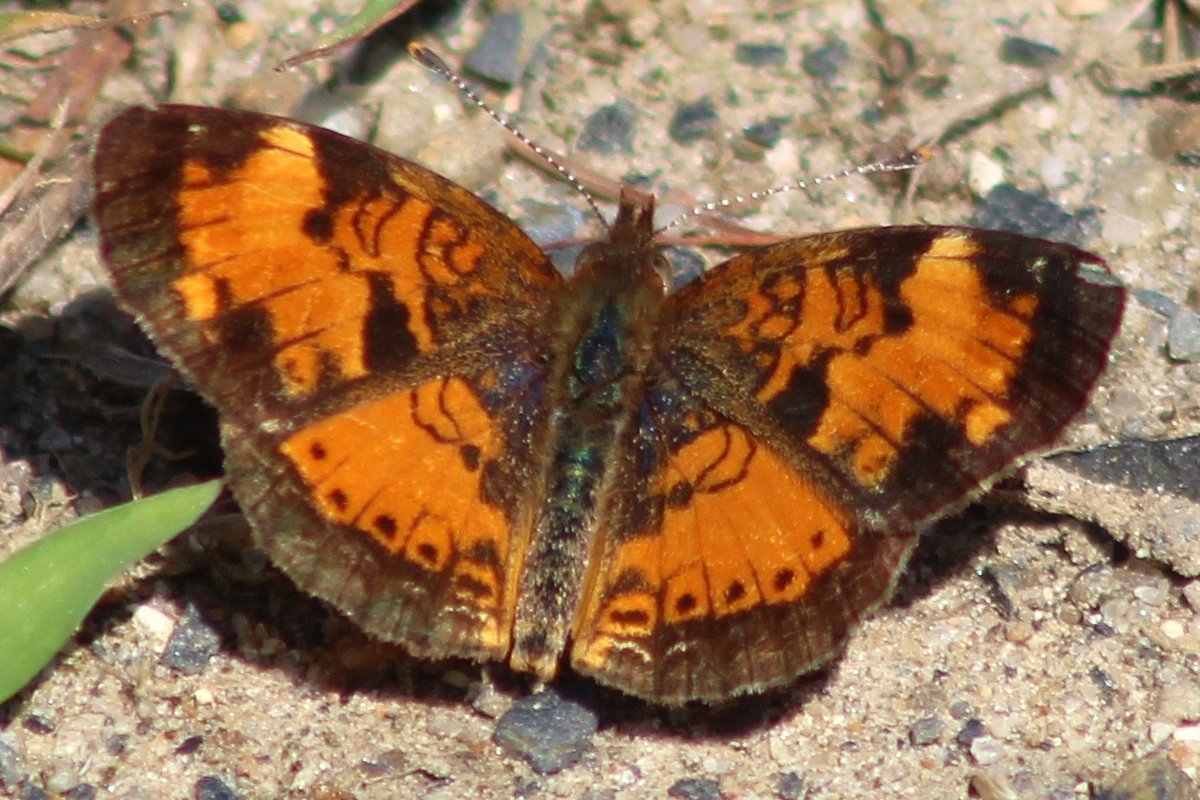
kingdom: Animalia
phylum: Arthropoda
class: Insecta
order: Lepidoptera
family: Nymphalidae
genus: Phyciodes
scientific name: Phyciodes tharos
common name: Northern Crescent
